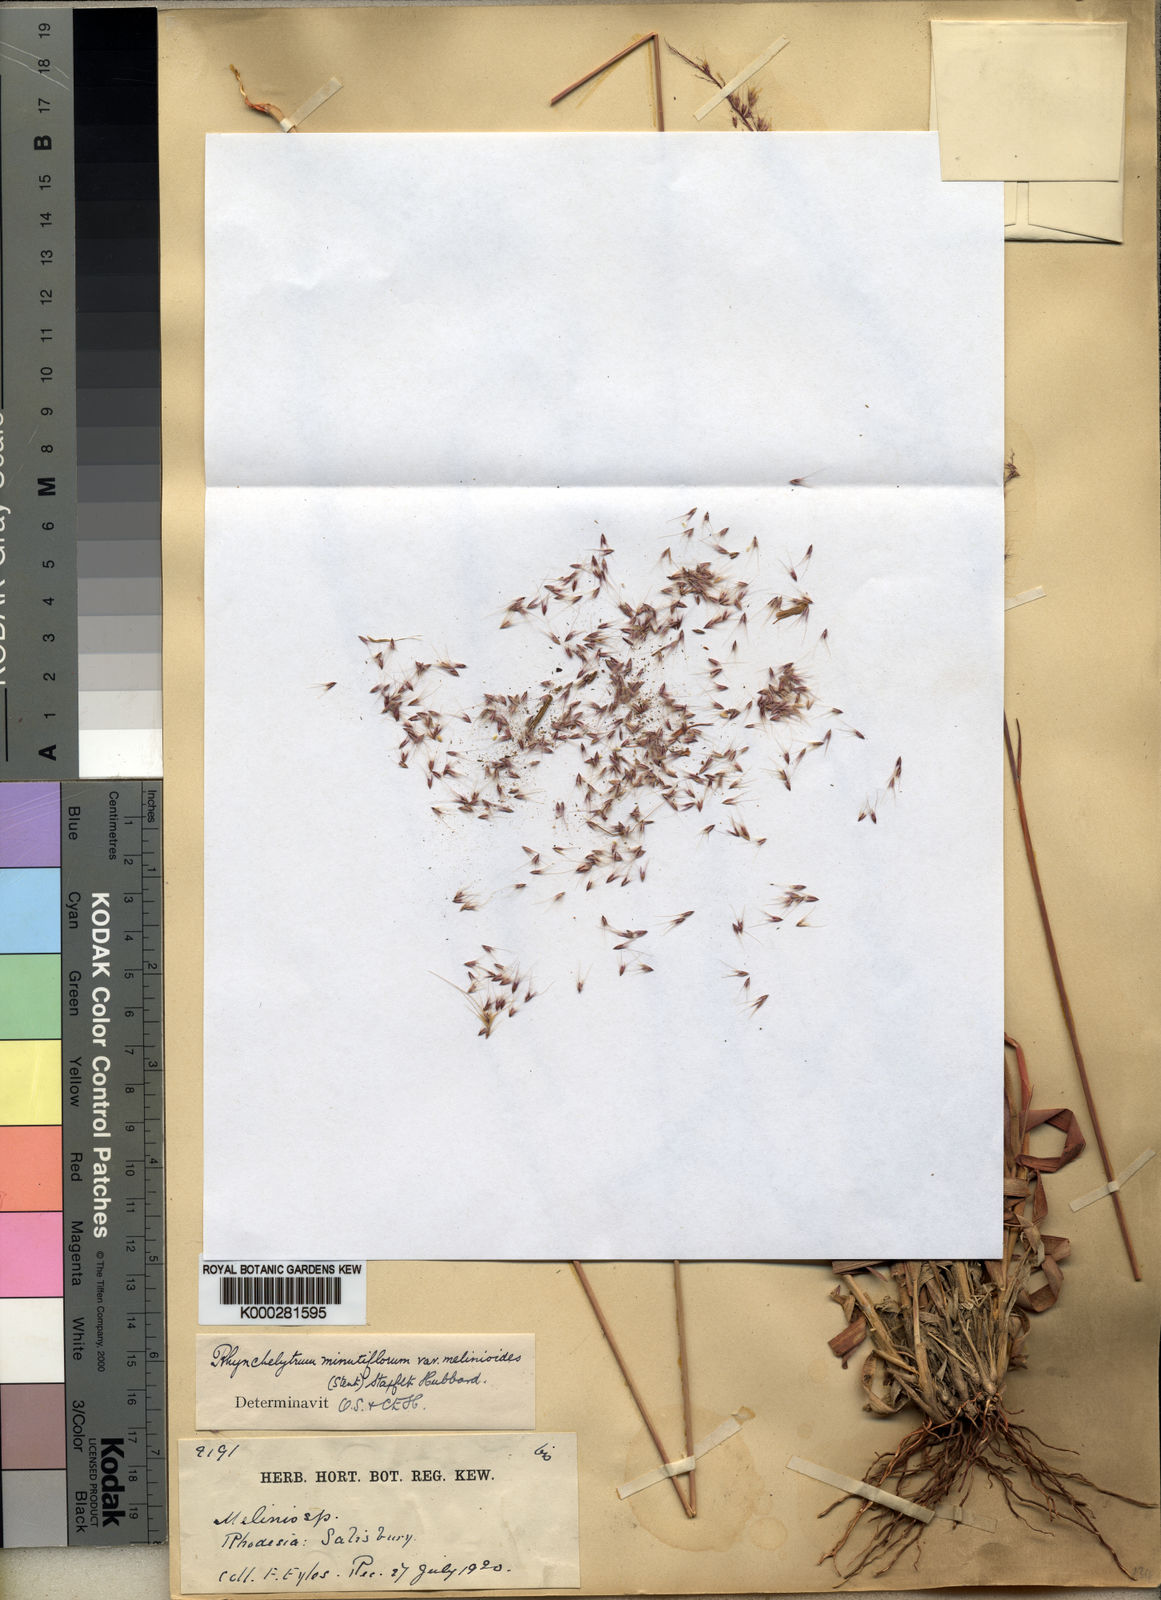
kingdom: Plantae
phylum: Tracheophyta
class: Liliopsida
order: Poales
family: Poaceae
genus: Melinis
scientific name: Melinis longiseta
